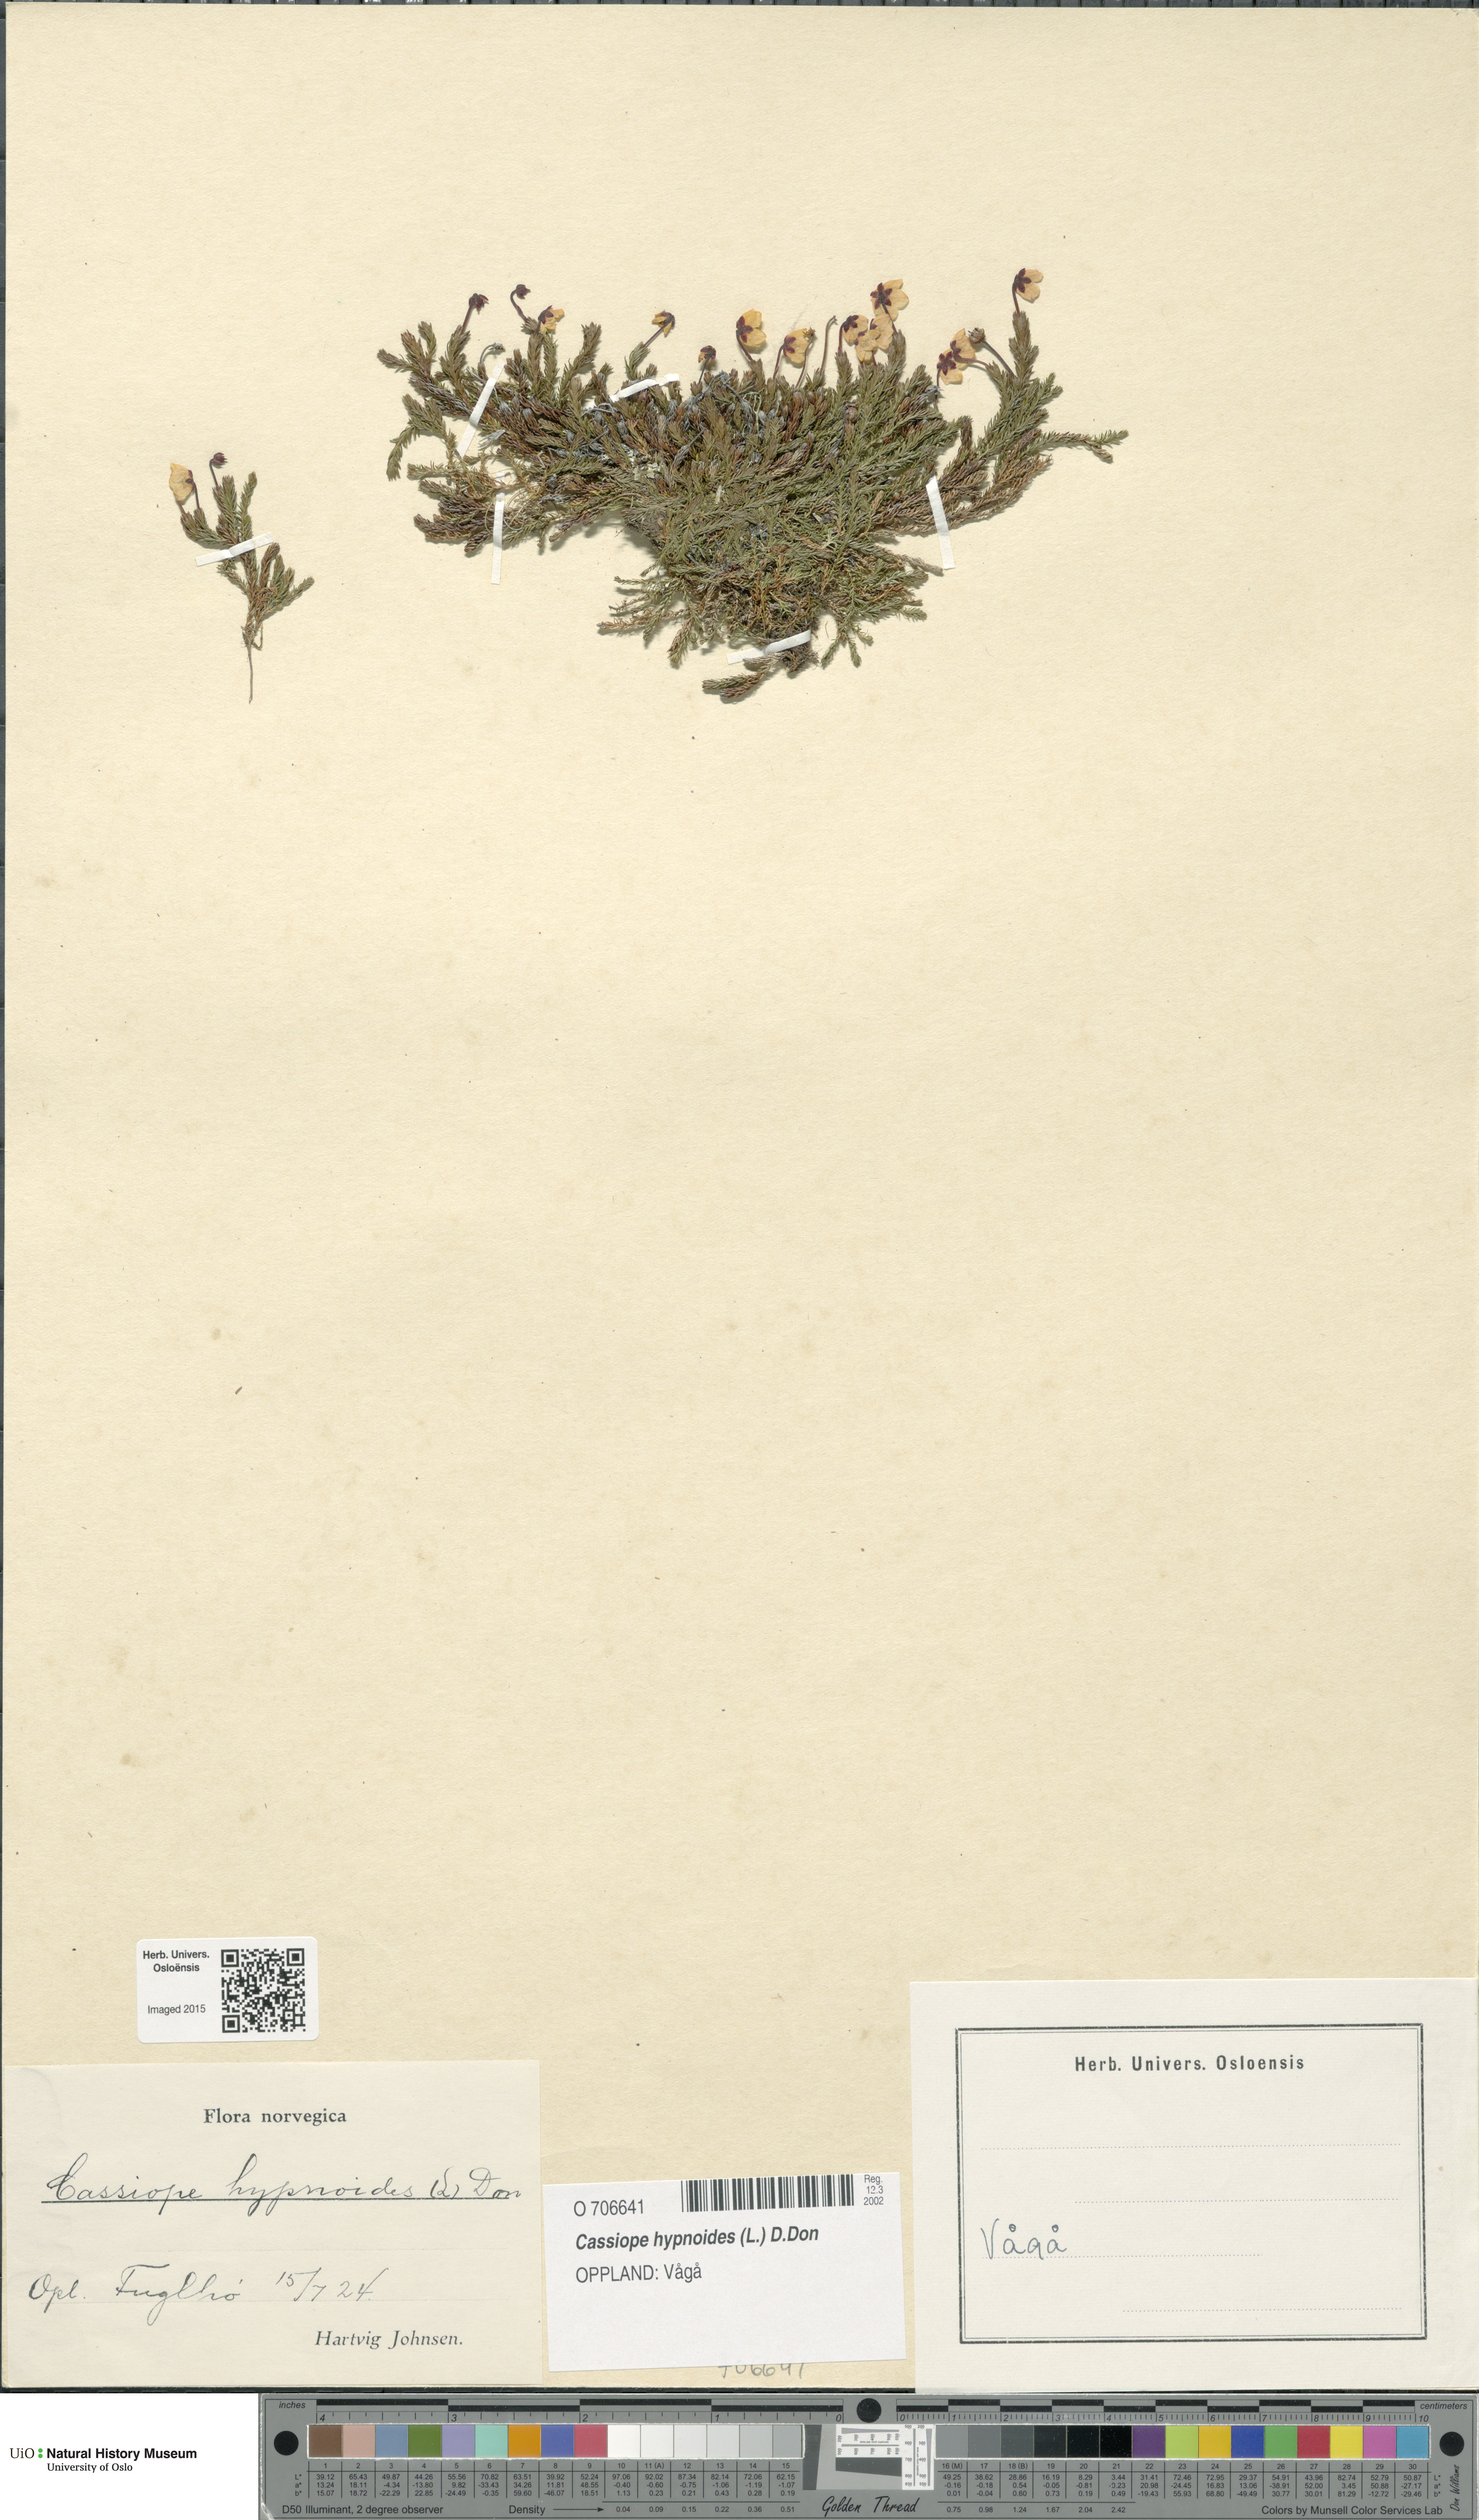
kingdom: Plantae
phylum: Tracheophyta
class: Magnoliopsida
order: Ericales
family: Ericaceae
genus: Harrimanella
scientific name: Harrimanella hypnoides
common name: Moss bell heather
